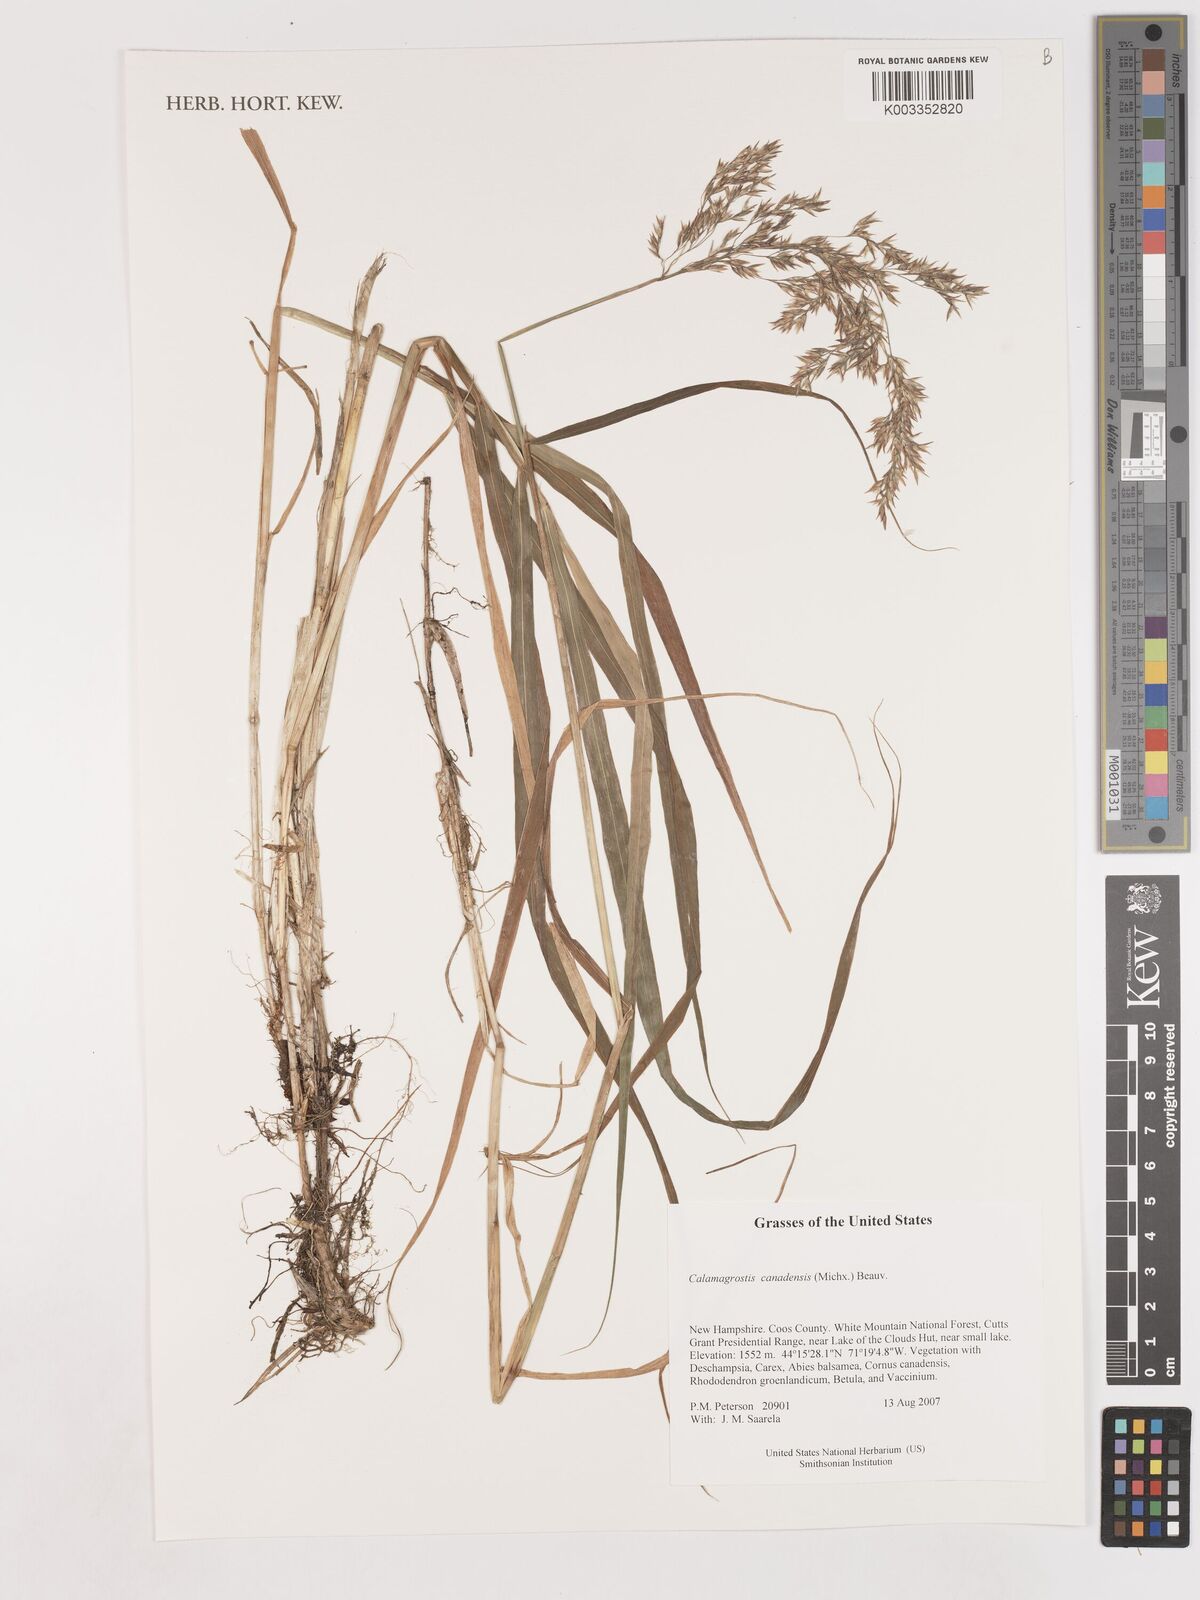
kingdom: Plantae
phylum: Tracheophyta
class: Liliopsida
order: Poales
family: Poaceae
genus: Calamagrostis
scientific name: Calamagrostis canadensis
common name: Canada bluejoint
